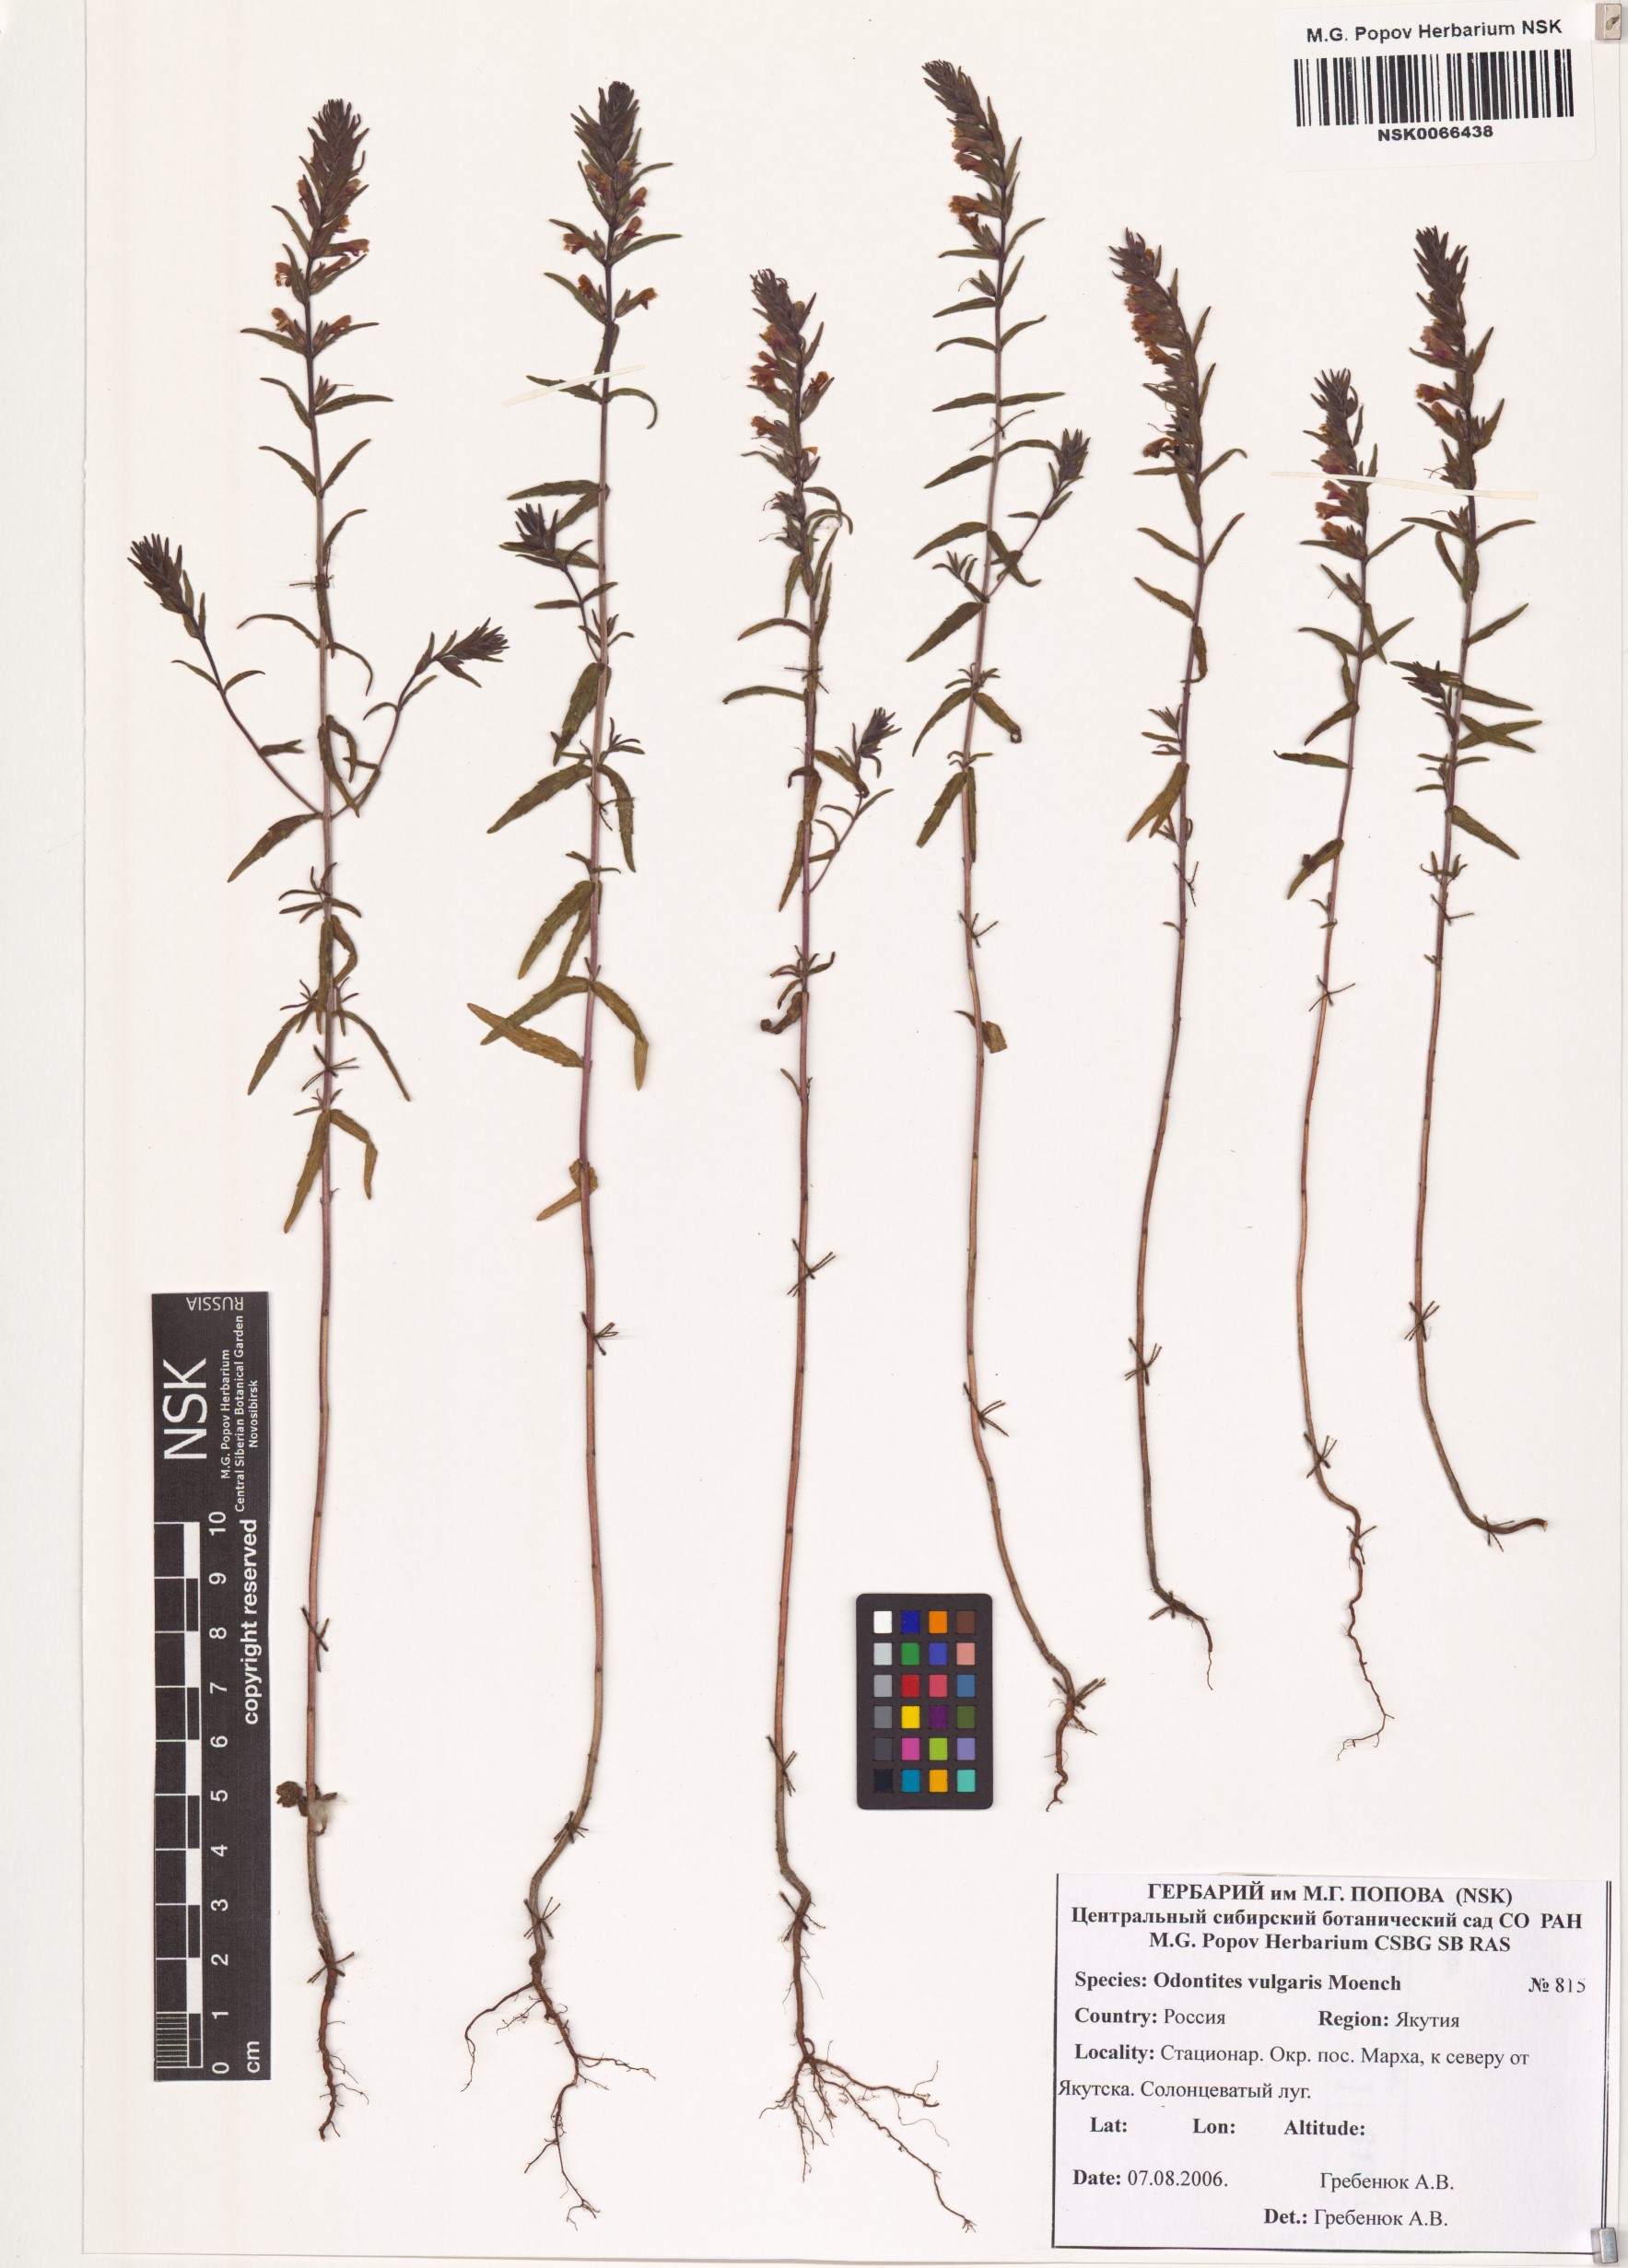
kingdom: Plantae
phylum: Tracheophyta
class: Magnoliopsida
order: Lamiales
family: Orobanchaceae
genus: Odontites
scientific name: Odontites vulgaris
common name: Broomrape
